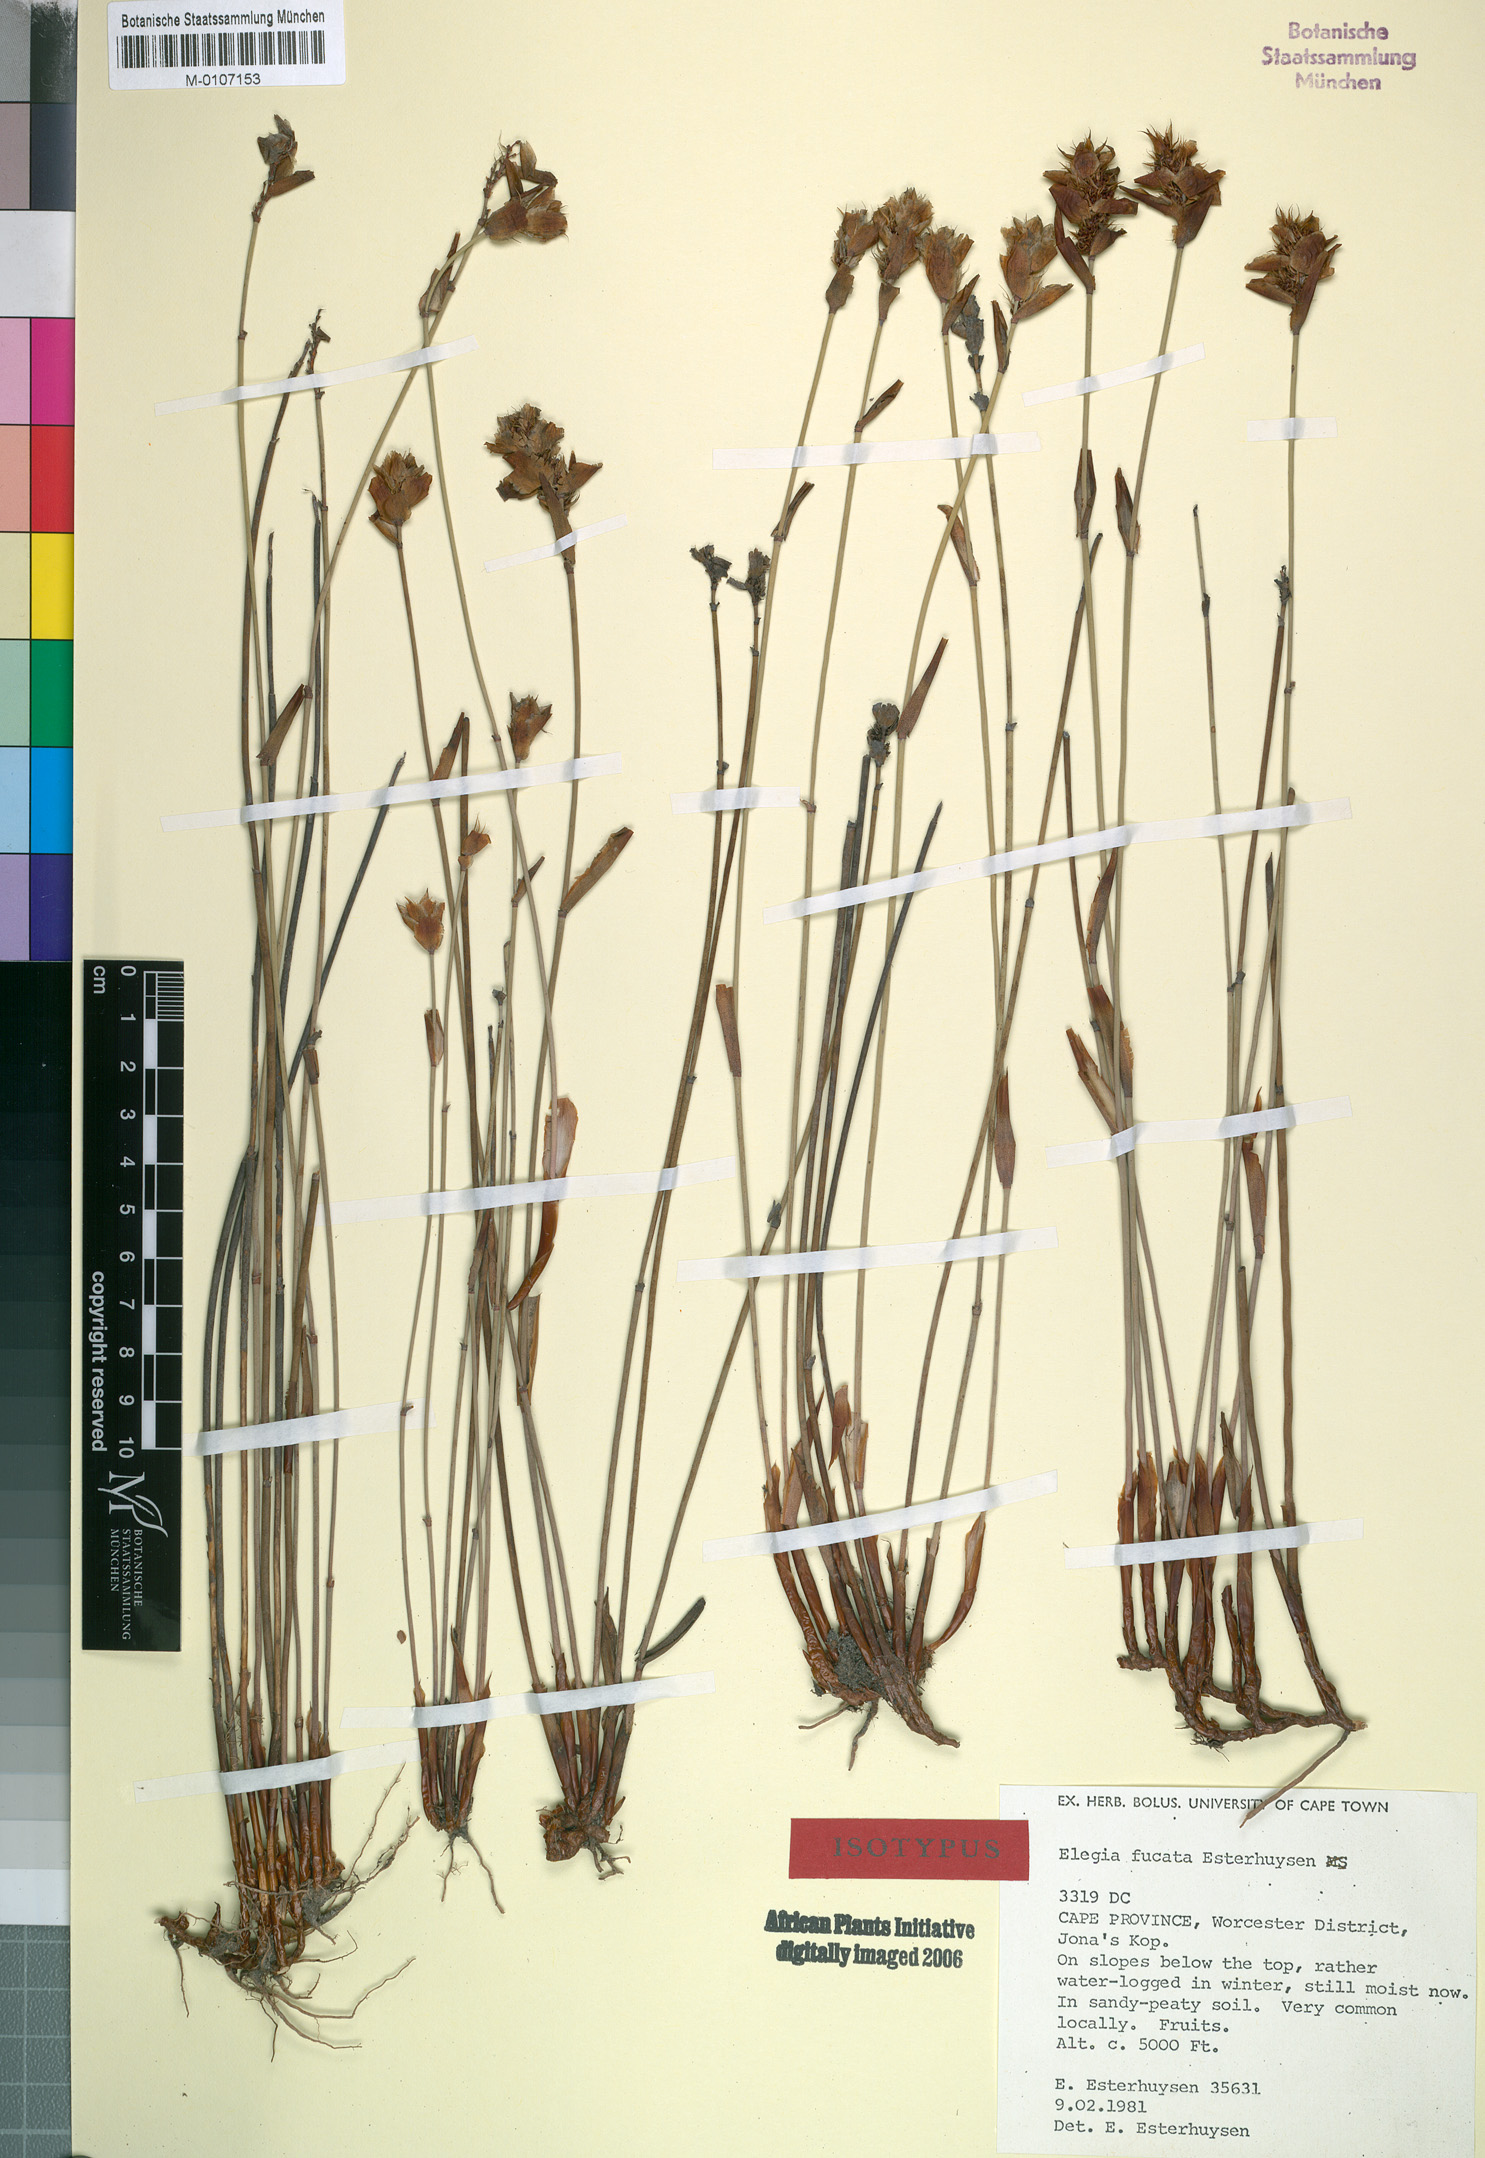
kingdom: Plantae
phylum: Tracheophyta
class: Liliopsida
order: Poales
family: Restionaceae
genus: Elegia
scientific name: Elegia fucata
